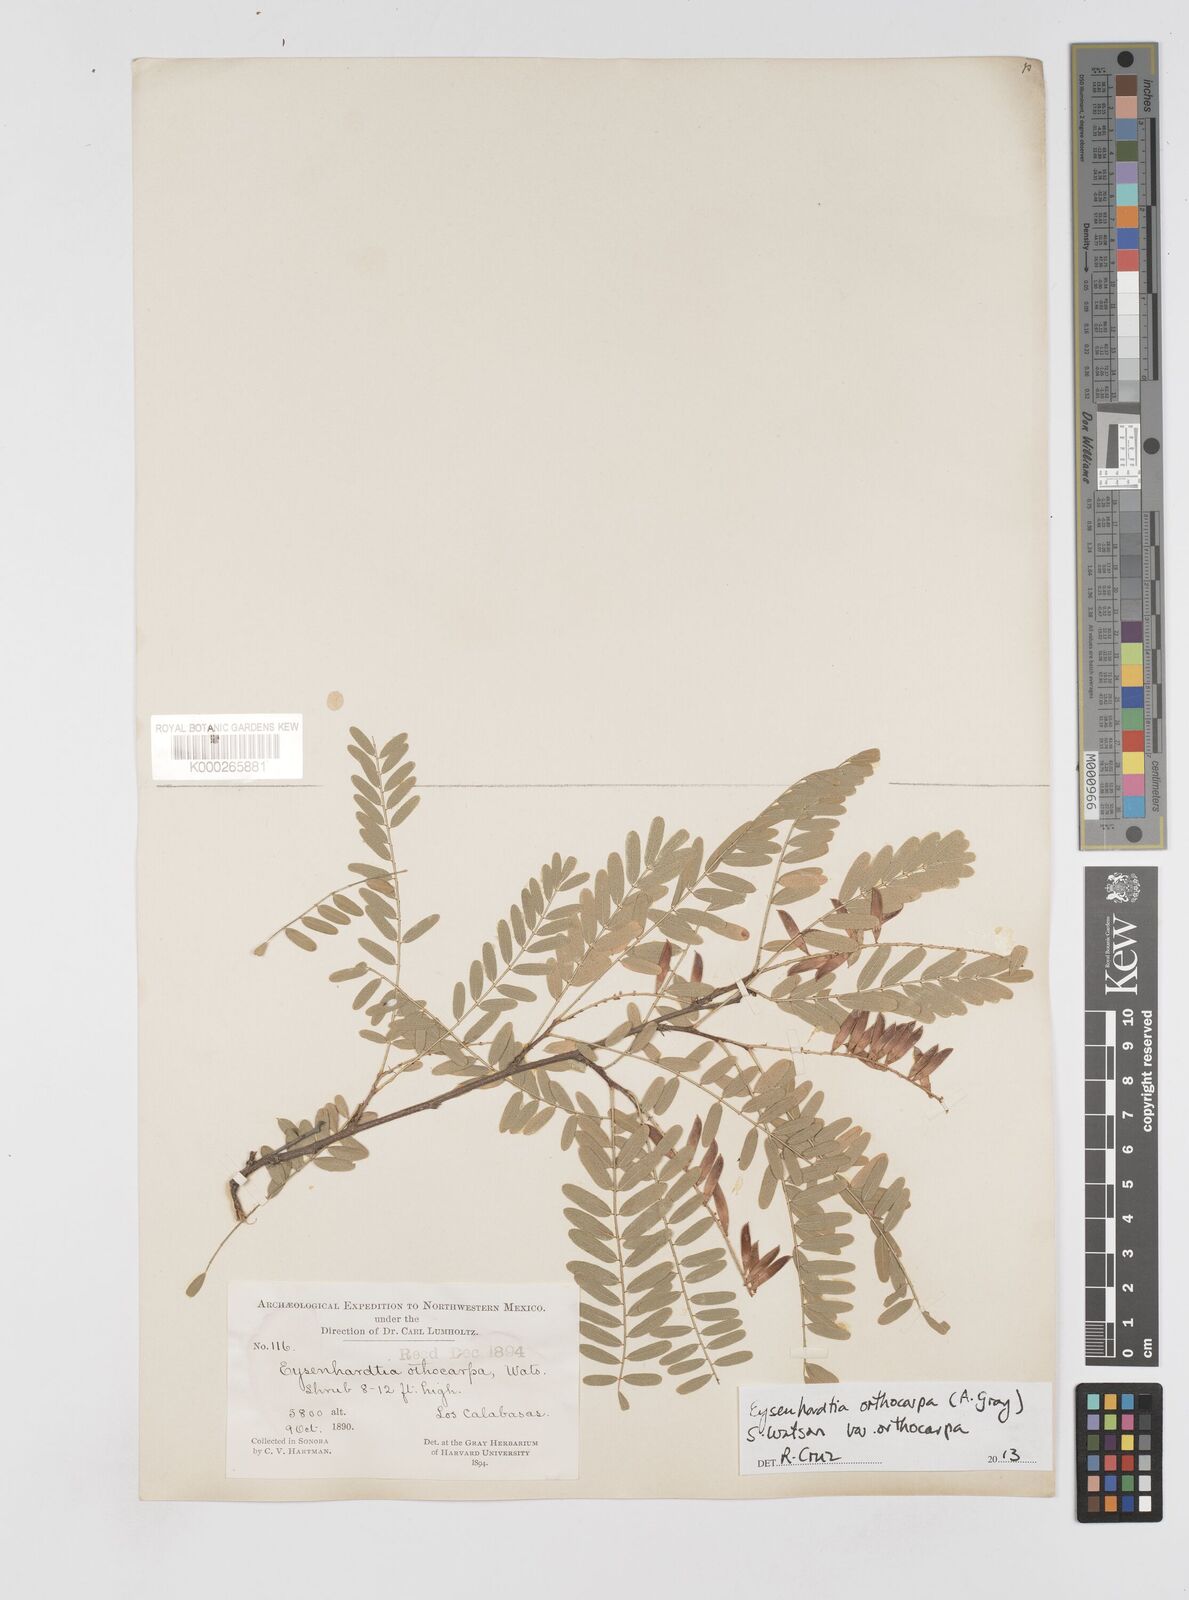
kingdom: Plantae
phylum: Tracheophyta
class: Magnoliopsida
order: Fabales
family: Fabaceae
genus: Eysenhardtia
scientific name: Eysenhardtia orthocarpa
